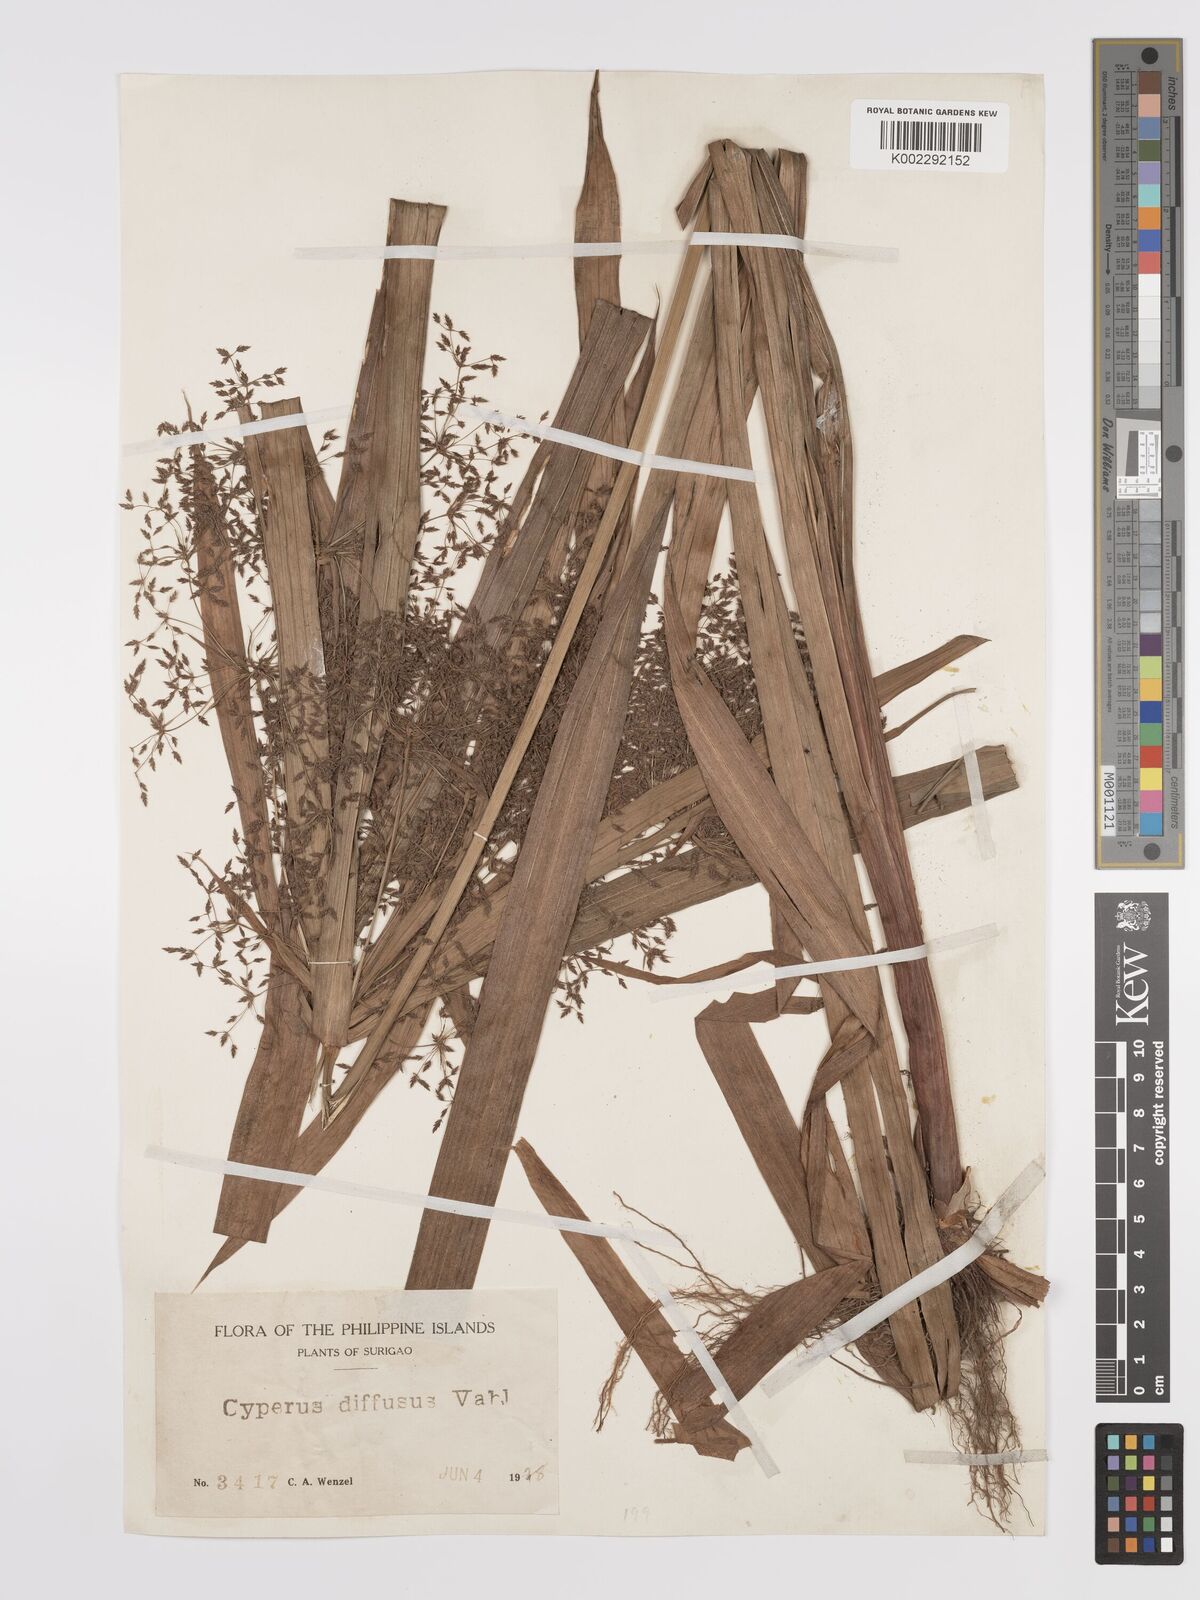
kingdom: Plantae
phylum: Tracheophyta
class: Liliopsida
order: Poales
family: Cyperaceae
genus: Cyperus
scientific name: Cyperus diffusus
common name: Dwarf umbrella grass
